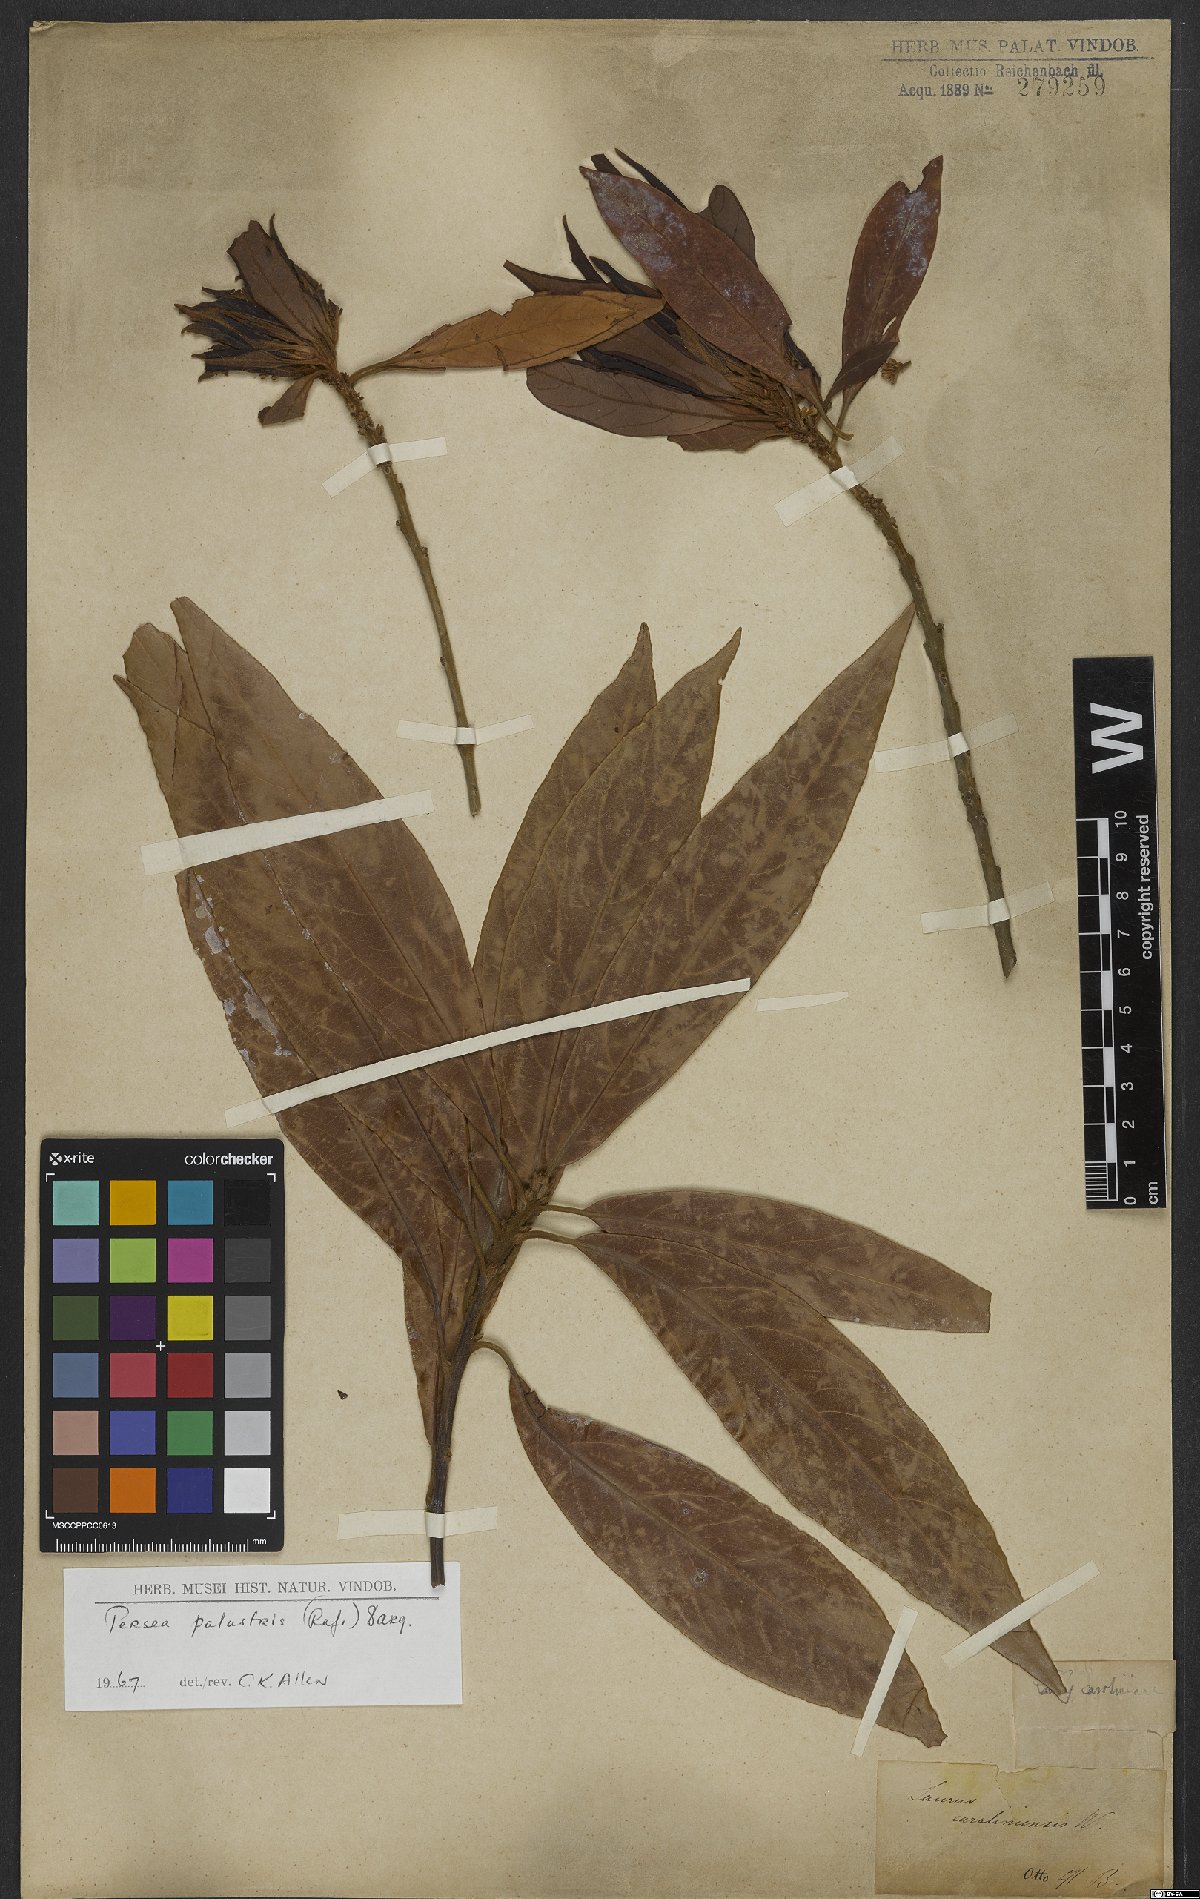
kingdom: Plantae
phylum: Tracheophyta
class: Magnoliopsida
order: Laurales
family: Lauraceae
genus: Persea
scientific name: Persea palustris
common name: Swampbay
